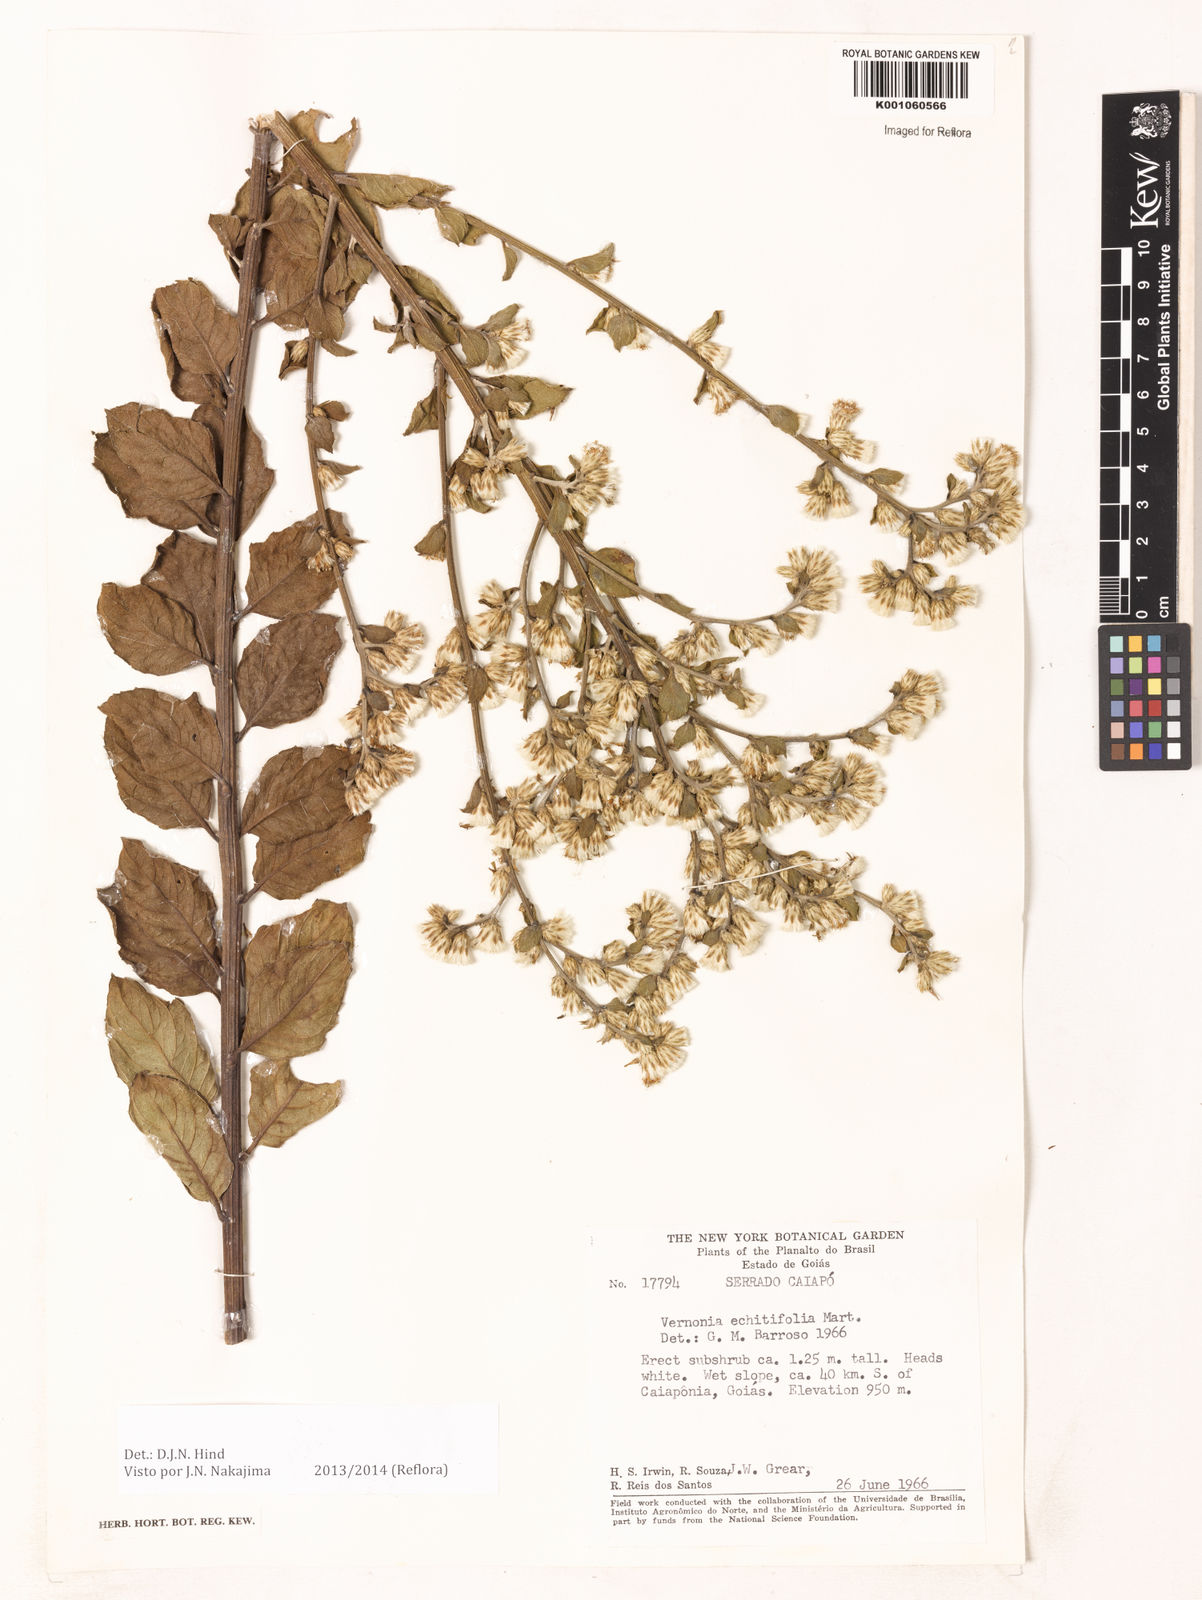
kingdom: Plantae
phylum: Tracheophyta
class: Magnoliopsida
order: Asterales
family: Asteraceae
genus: Acilepidopsis
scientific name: Acilepidopsis echitifolia
